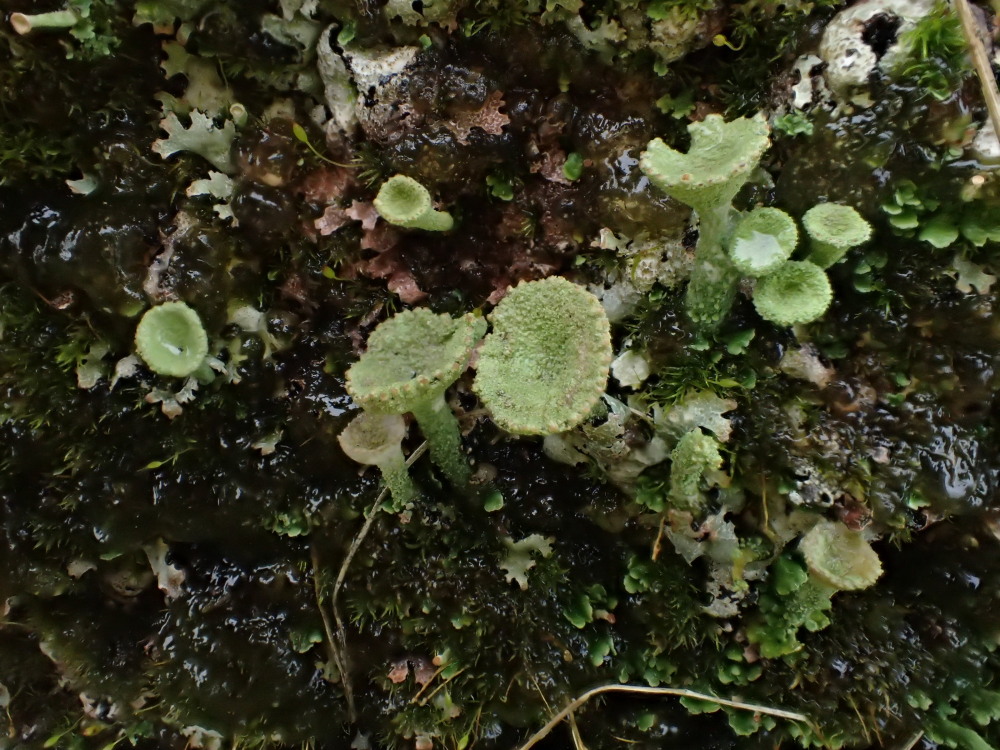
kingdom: Fungi
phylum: Ascomycota
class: Lecanoromycetes
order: Lecanorales
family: Cladoniaceae
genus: Cladonia
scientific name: Cladonia
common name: brungrøn bægerlav
